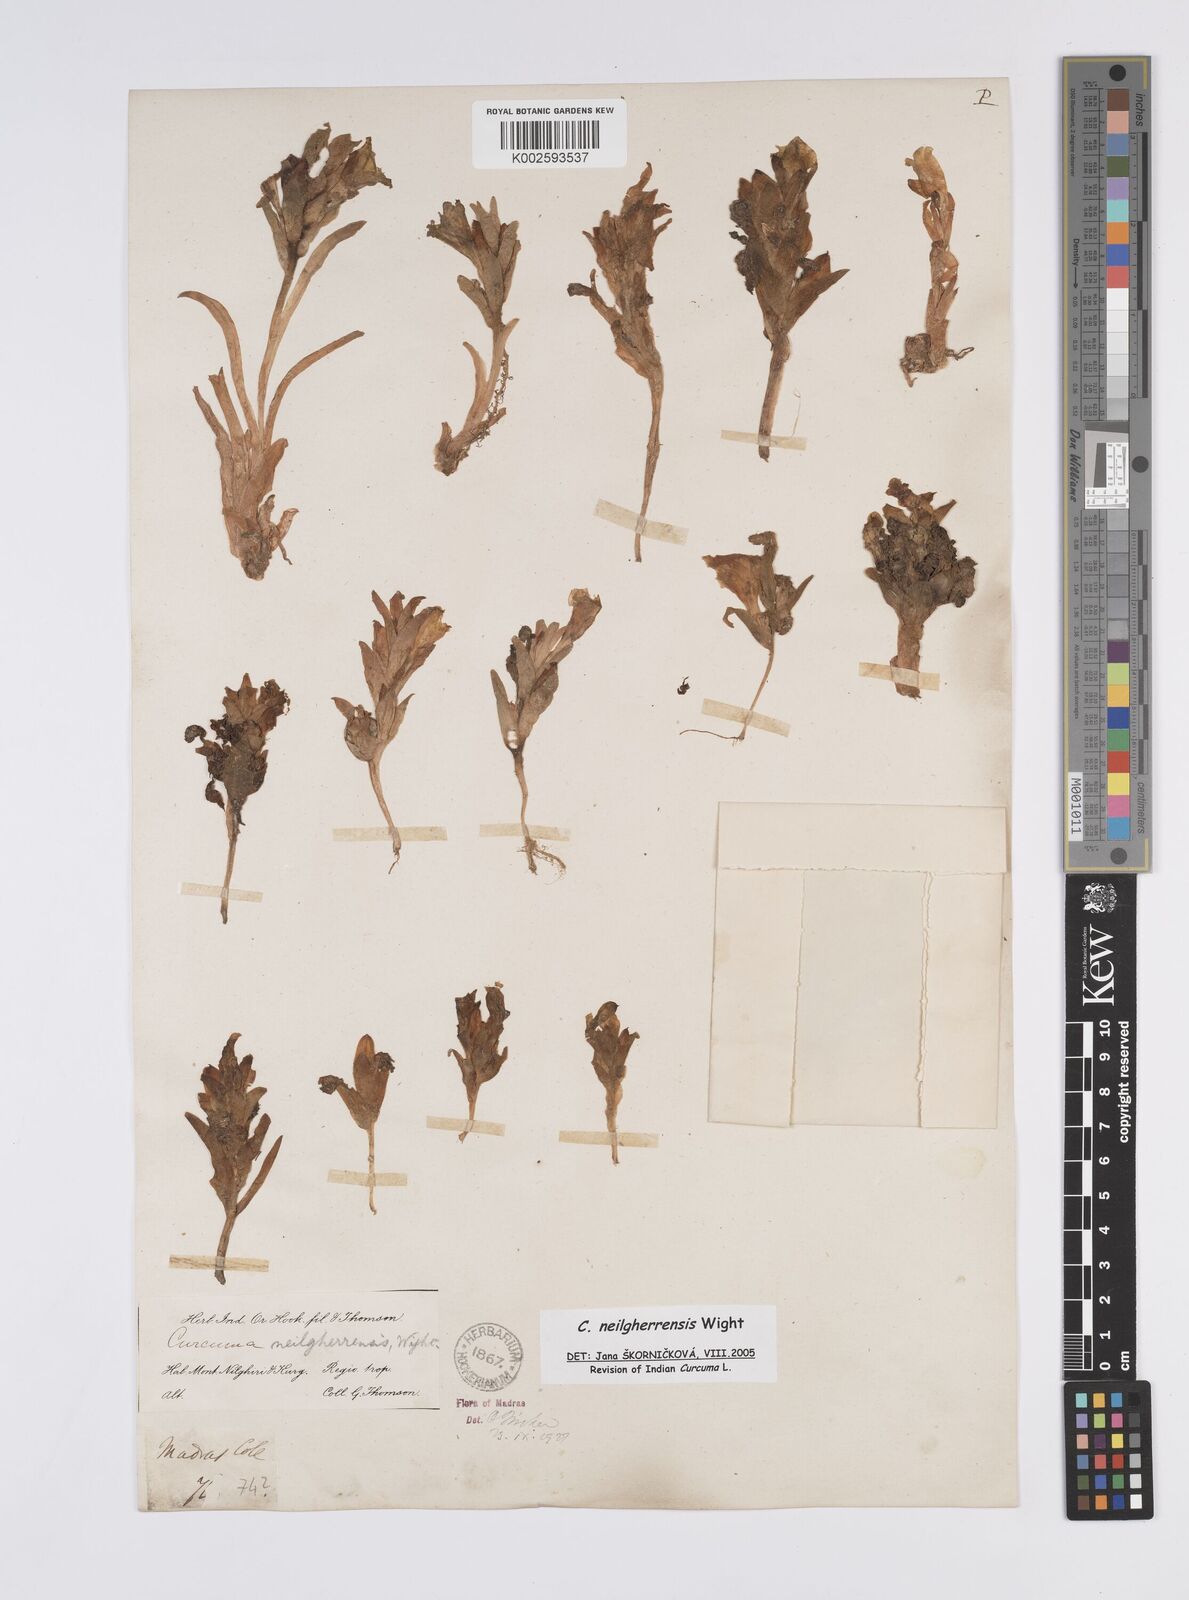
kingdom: Plantae
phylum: Tracheophyta
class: Liliopsida
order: Zingiberales
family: Zingiberaceae
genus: Curcuma
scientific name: Curcuma neilgherrensis
